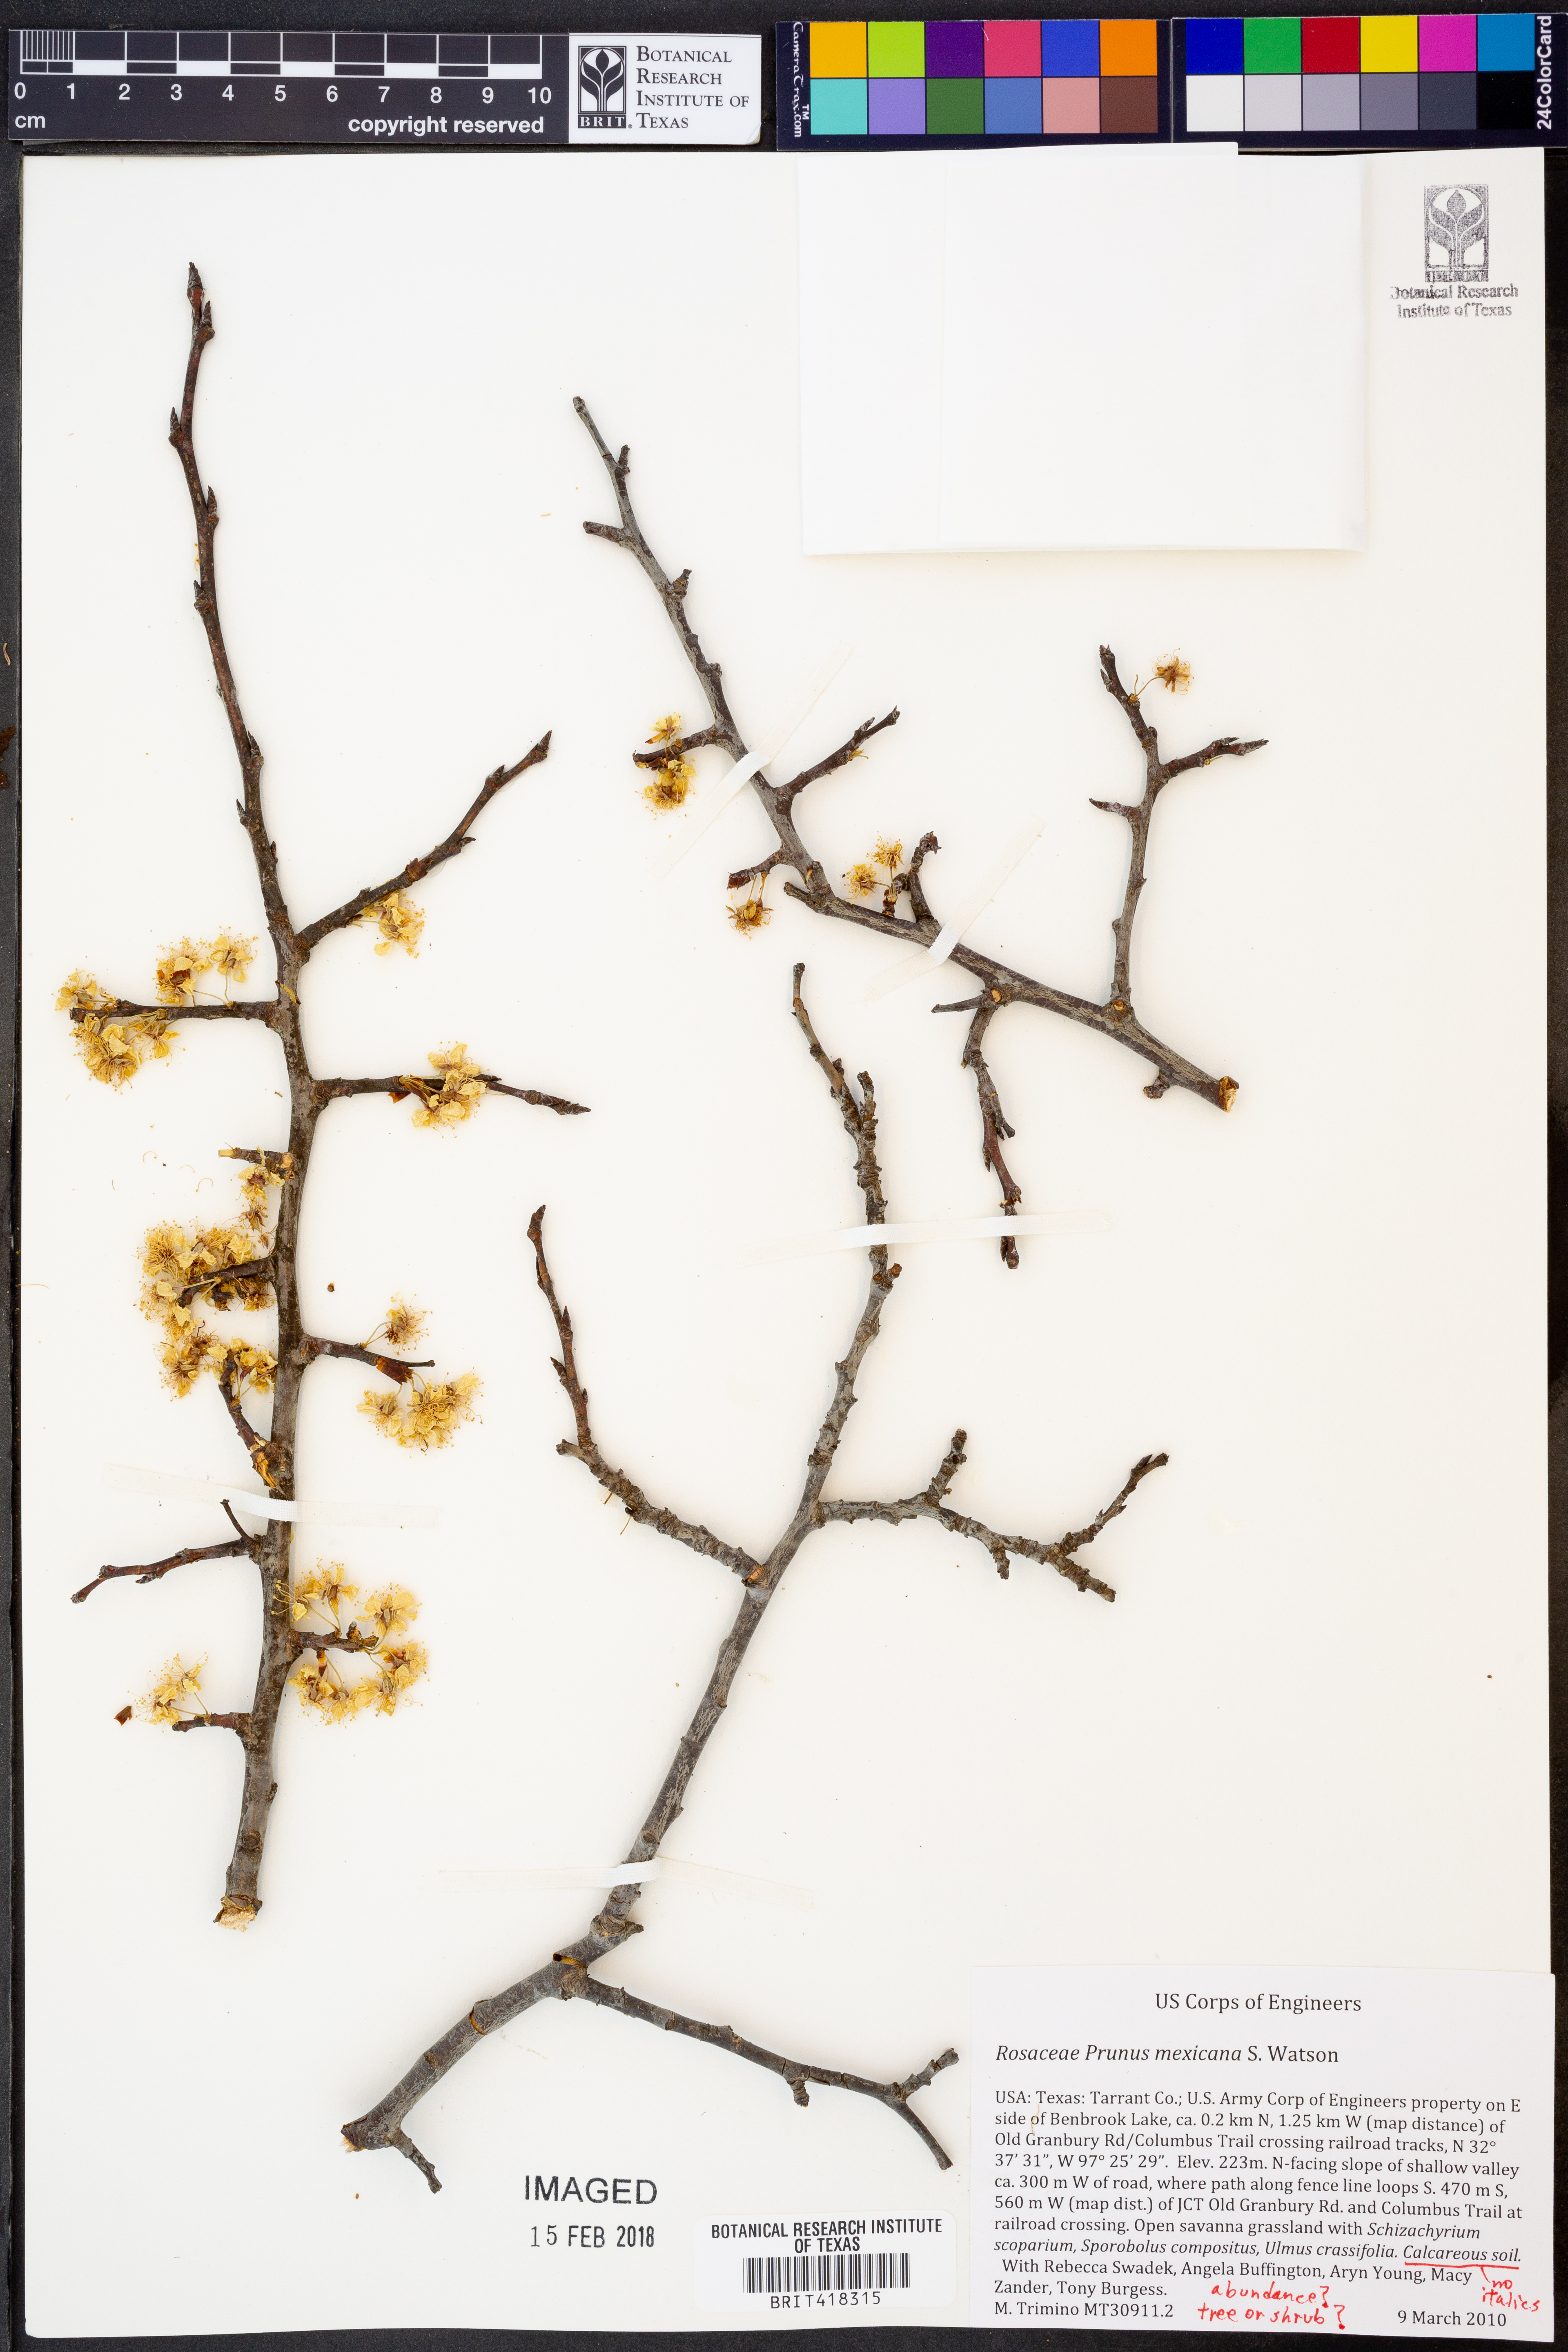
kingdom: Plantae
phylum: Tracheophyta
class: Magnoliopsida
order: Rosales
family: Rosaceae
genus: Prunus
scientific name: Prunus mexicana
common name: Mexican plum
